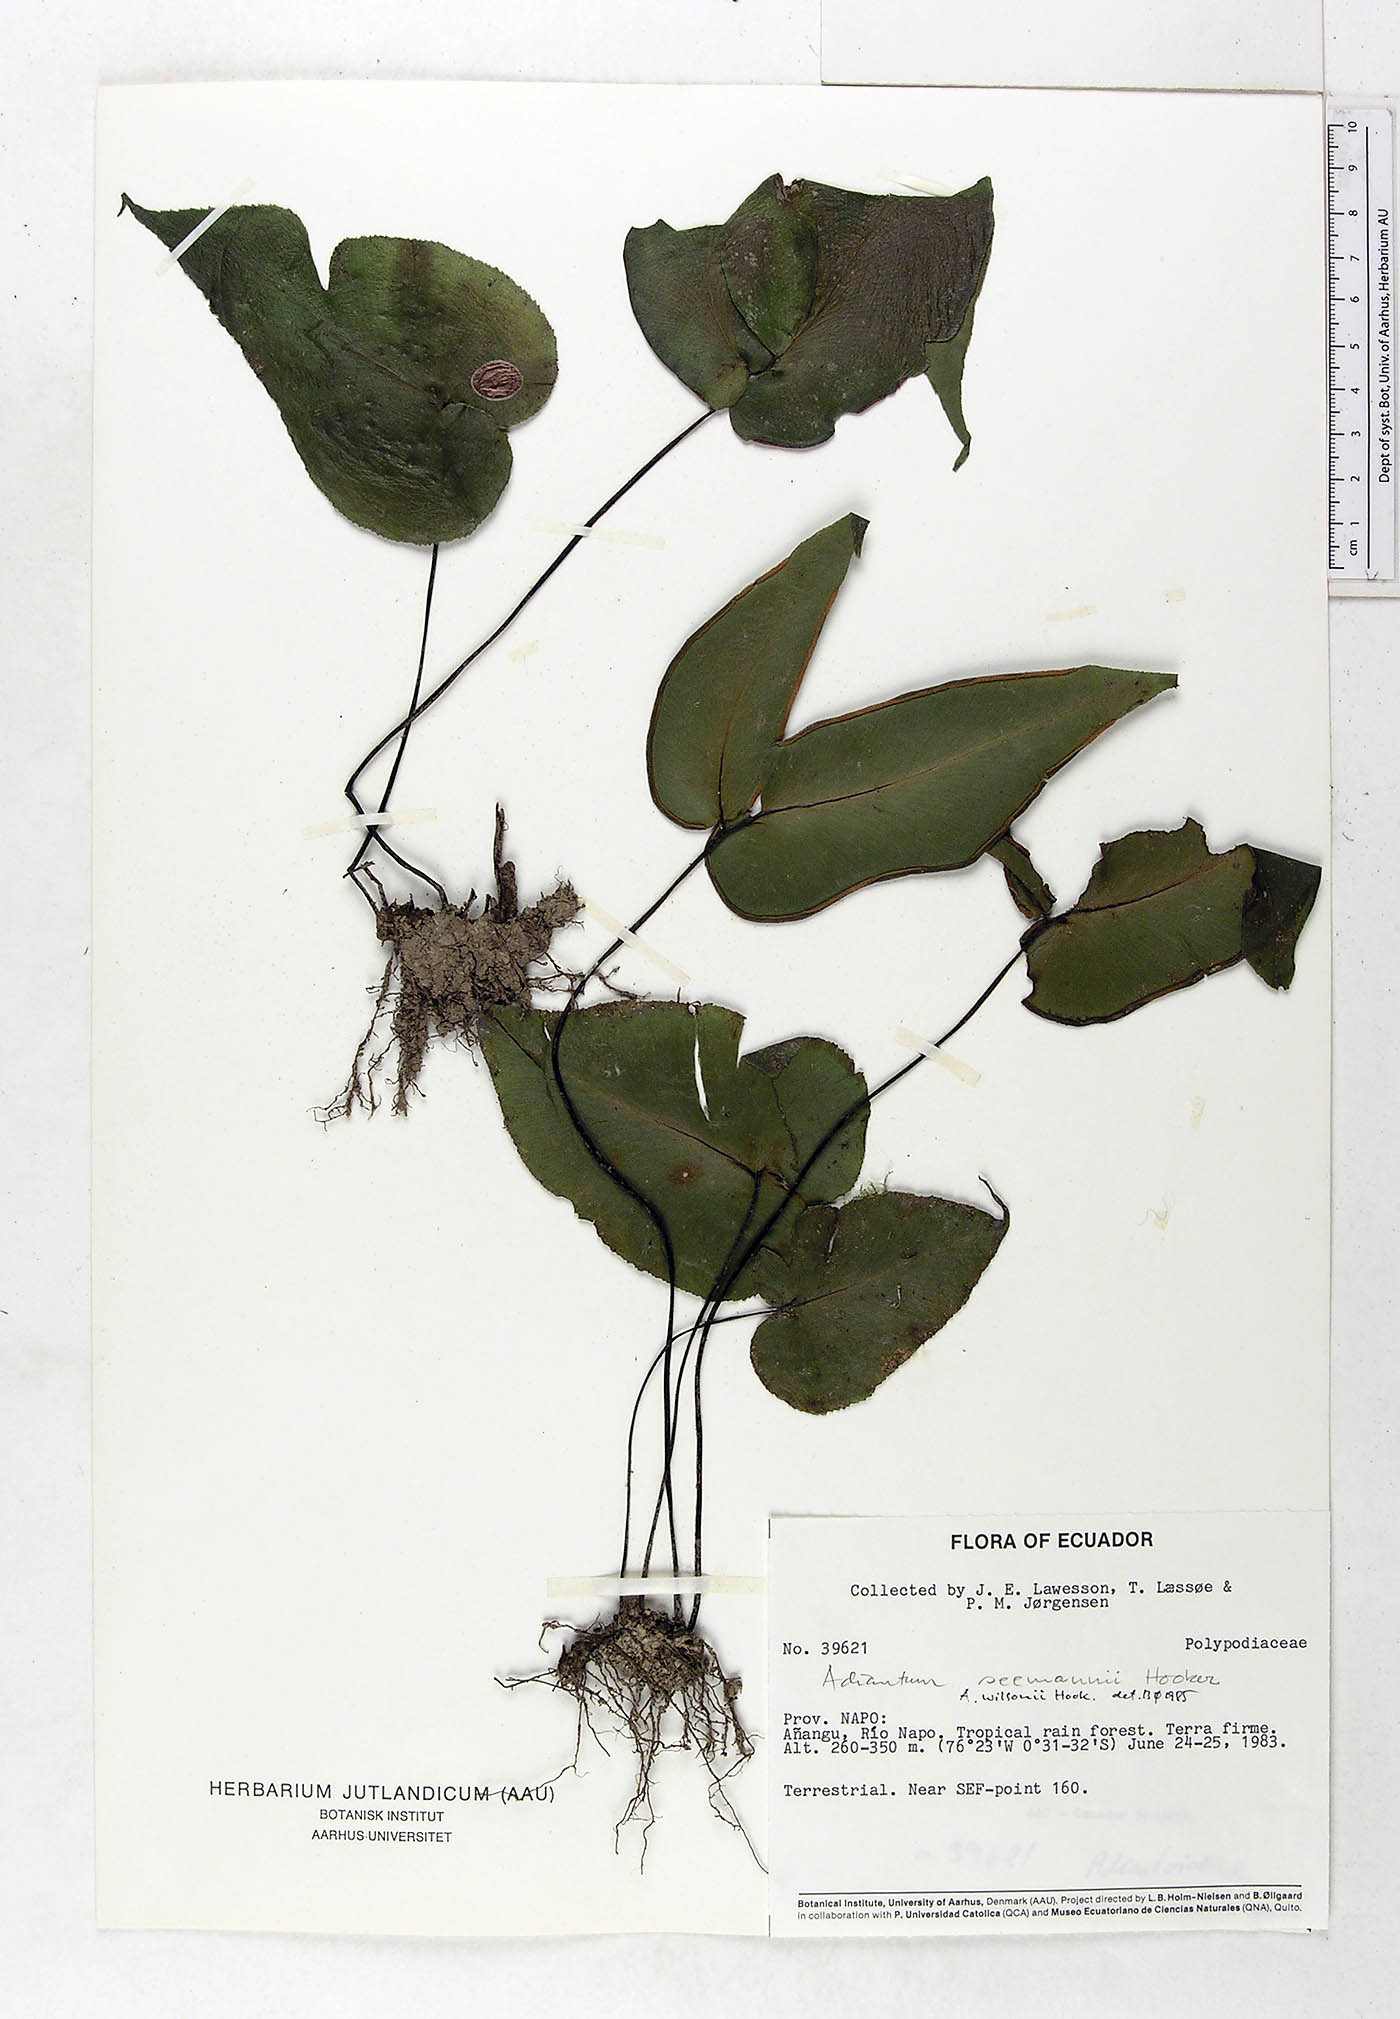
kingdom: Plantae
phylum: Tracheophyta
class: Polypodiopsida
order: Polypodiales
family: Pteridaceae
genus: Adiantum
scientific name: Adiantum wilsonii
